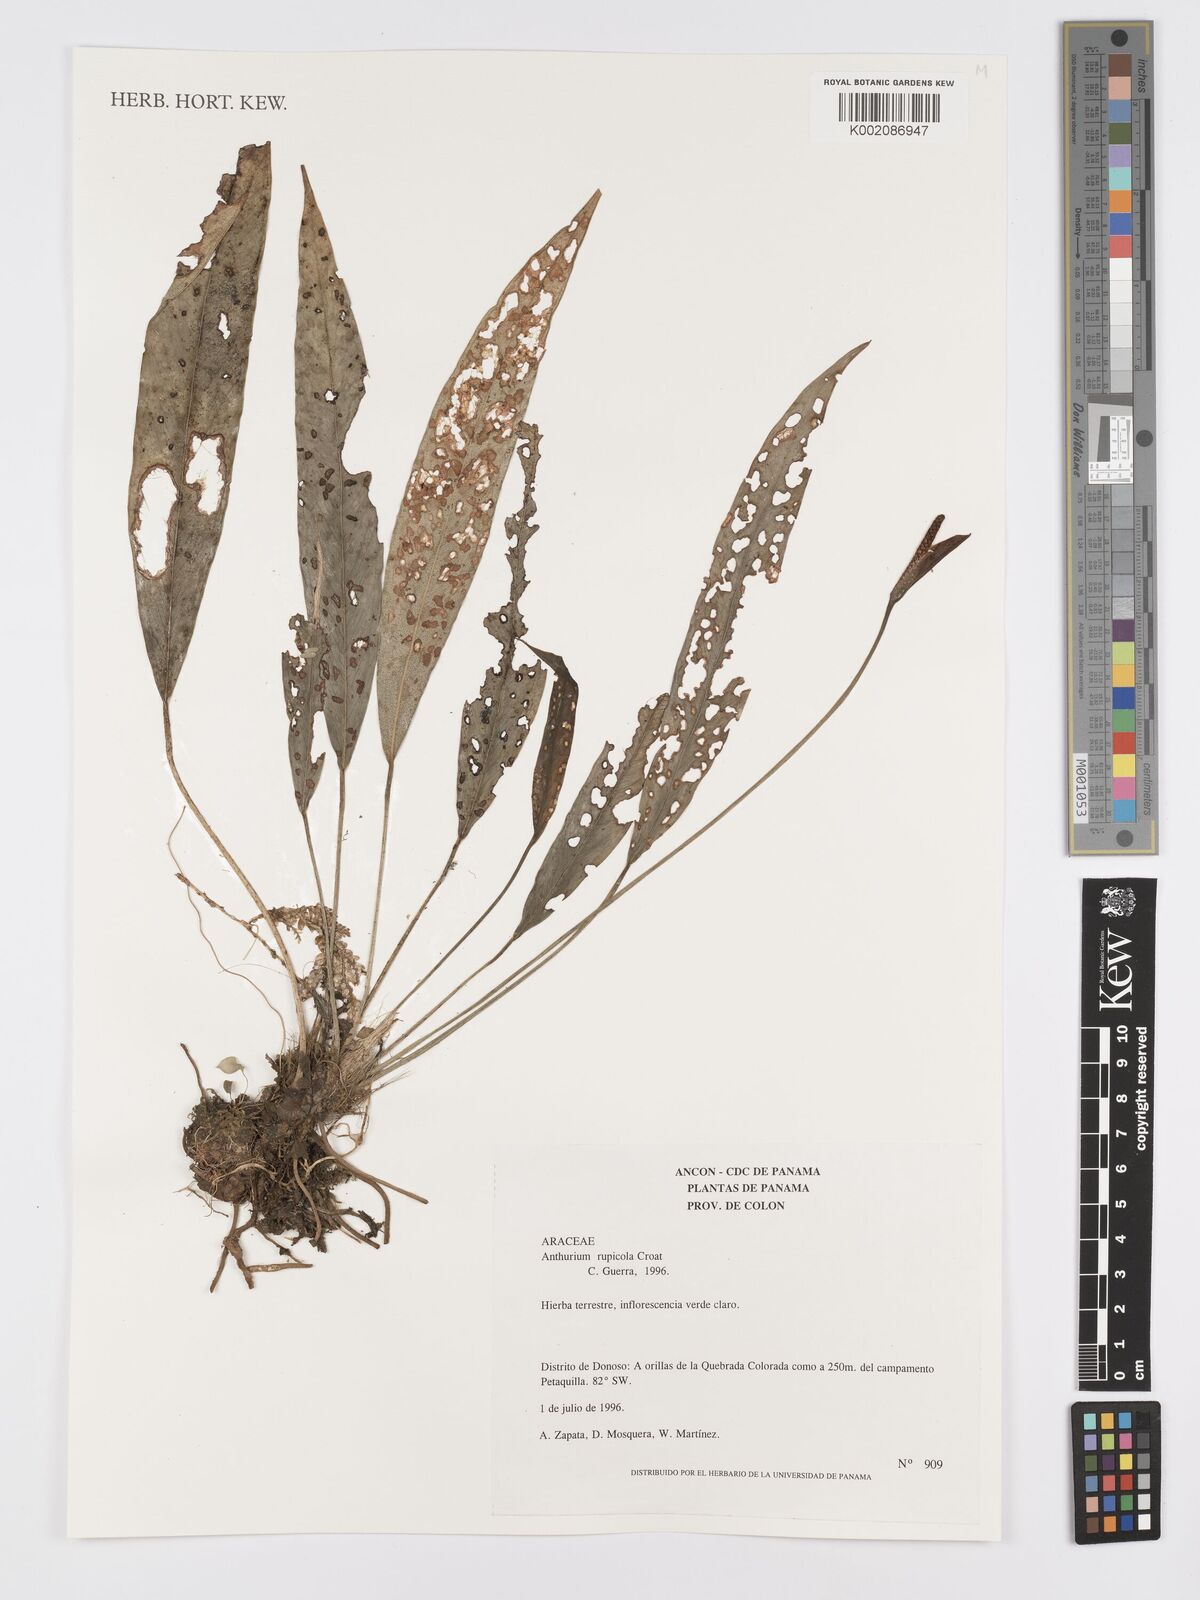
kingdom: Plantae
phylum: Tracheophyta
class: Liliopsida
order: Alismatales
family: Araceae
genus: Anthurium
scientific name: Anthurium rupicola
